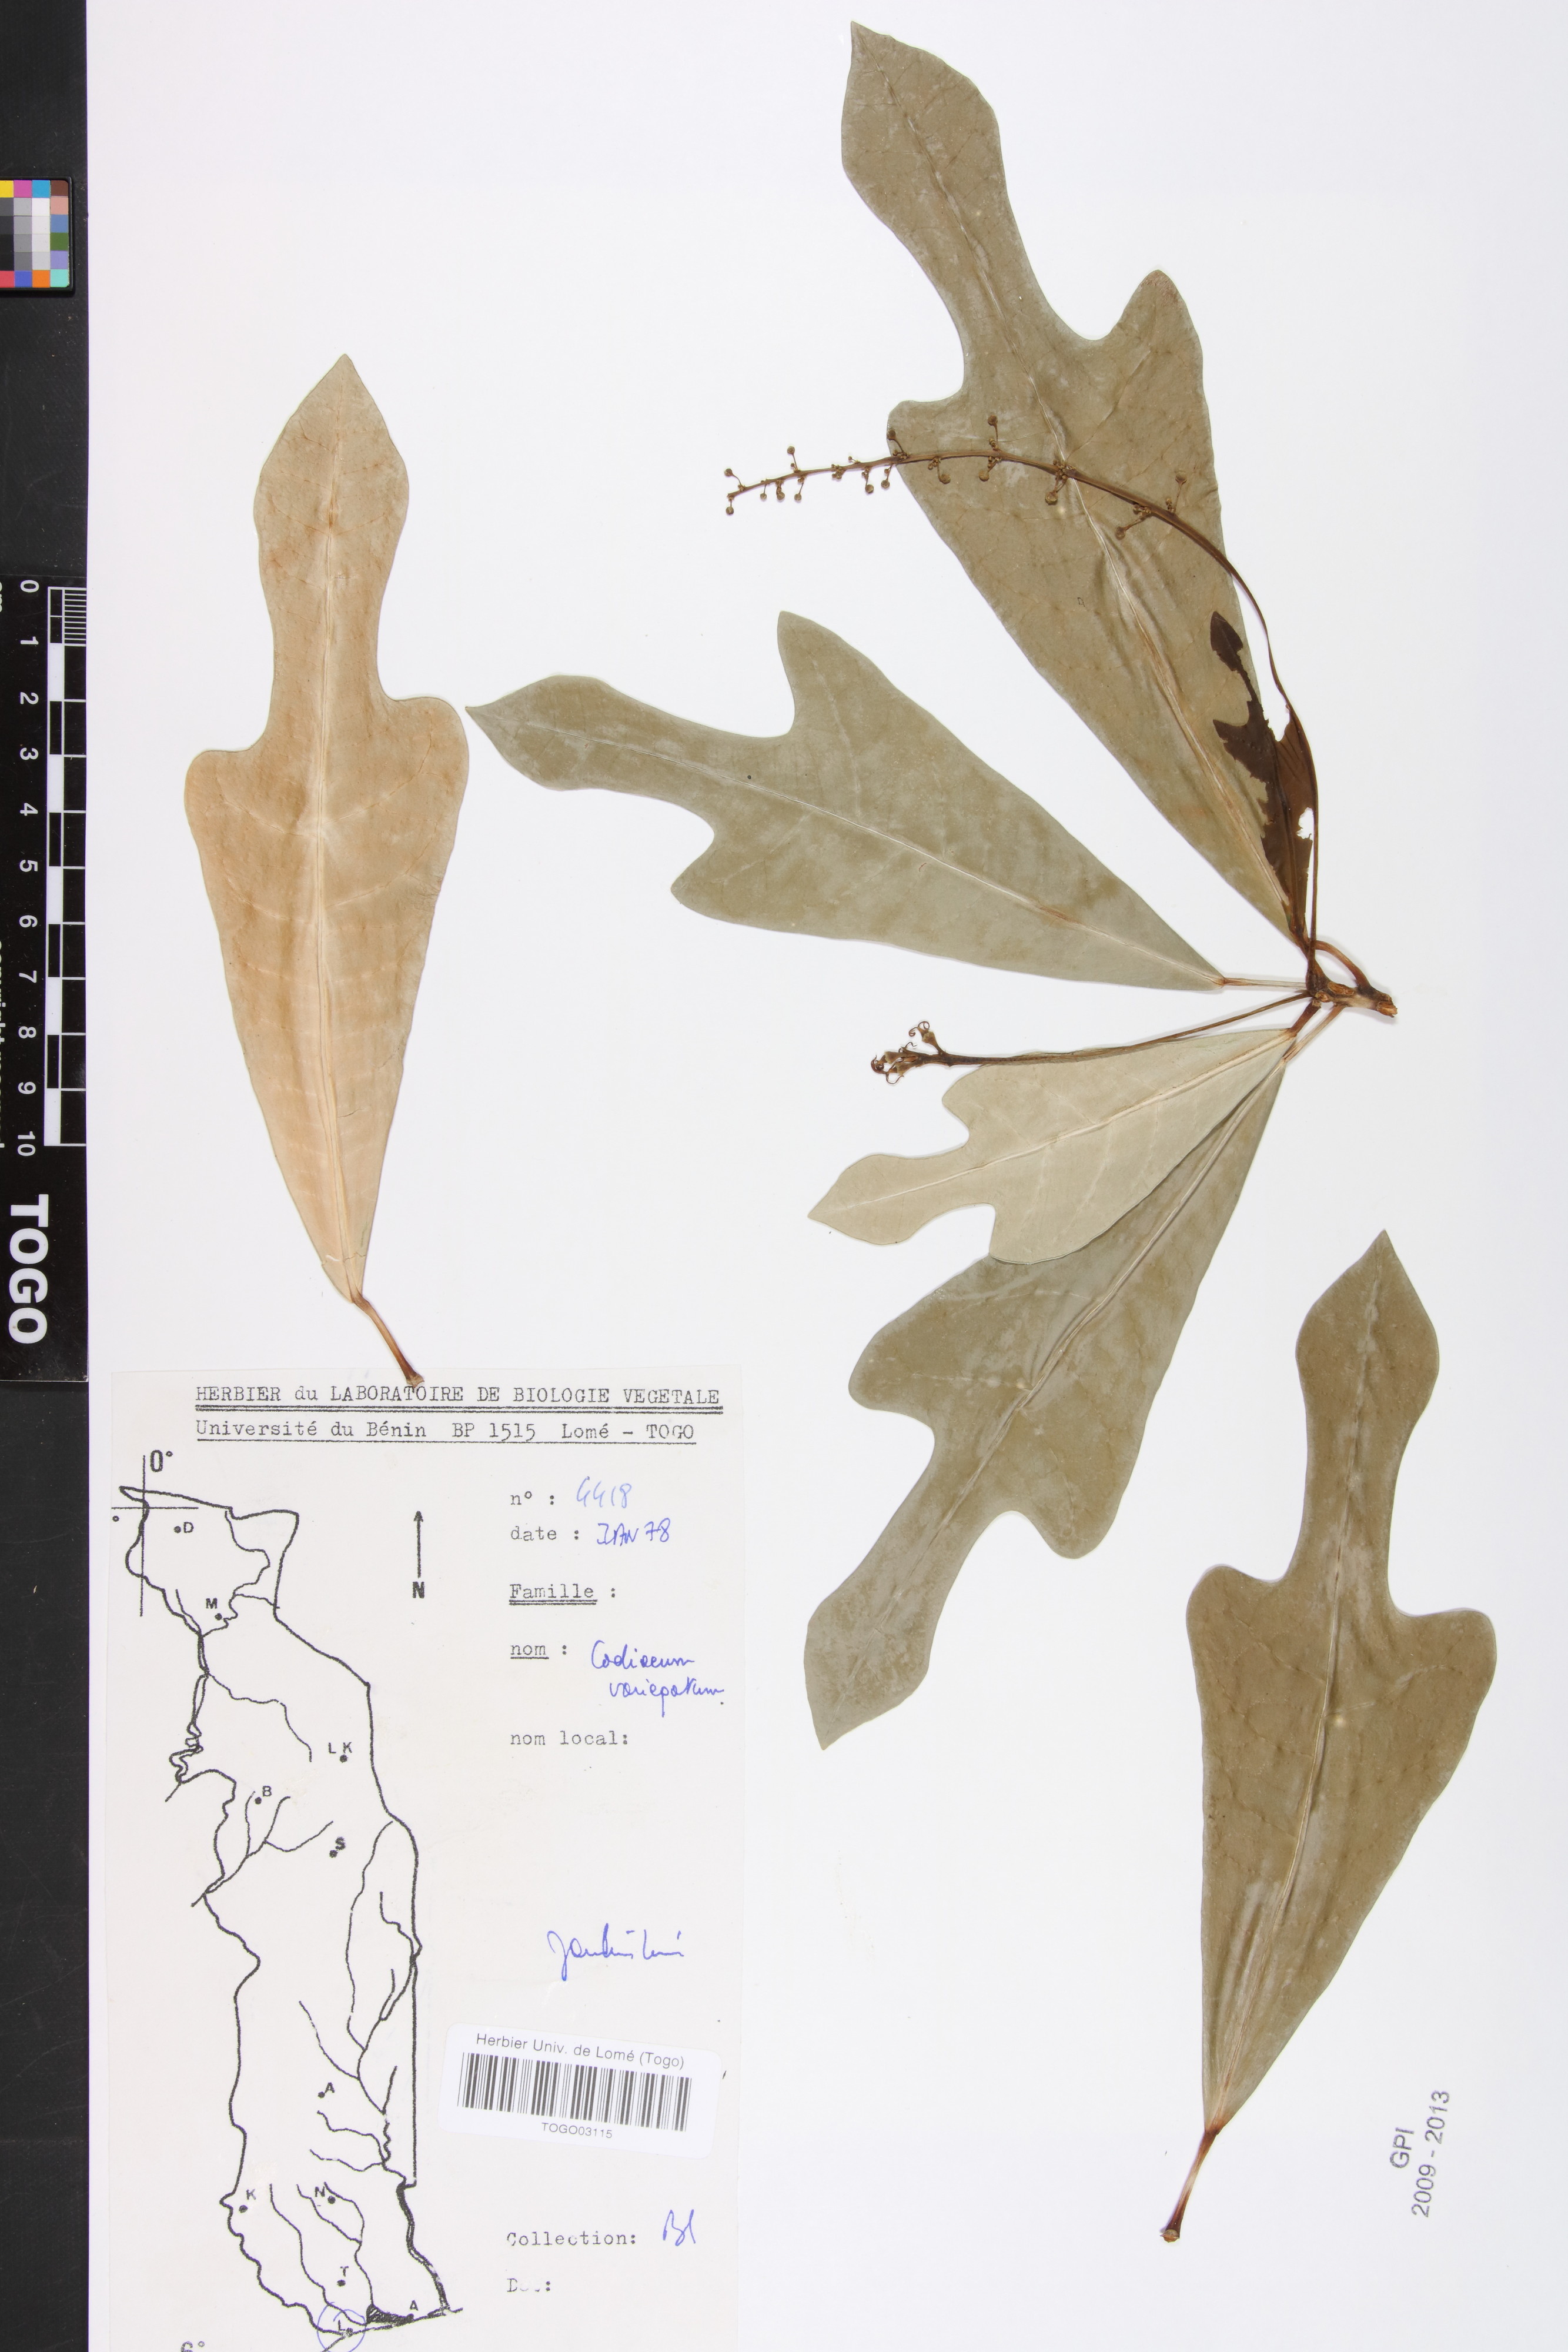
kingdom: Plantae
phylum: Tracheophyta
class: Magnoliopsida
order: Malpighiales
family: Euphorbiaceae
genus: Croton
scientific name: Croton gratissimus
